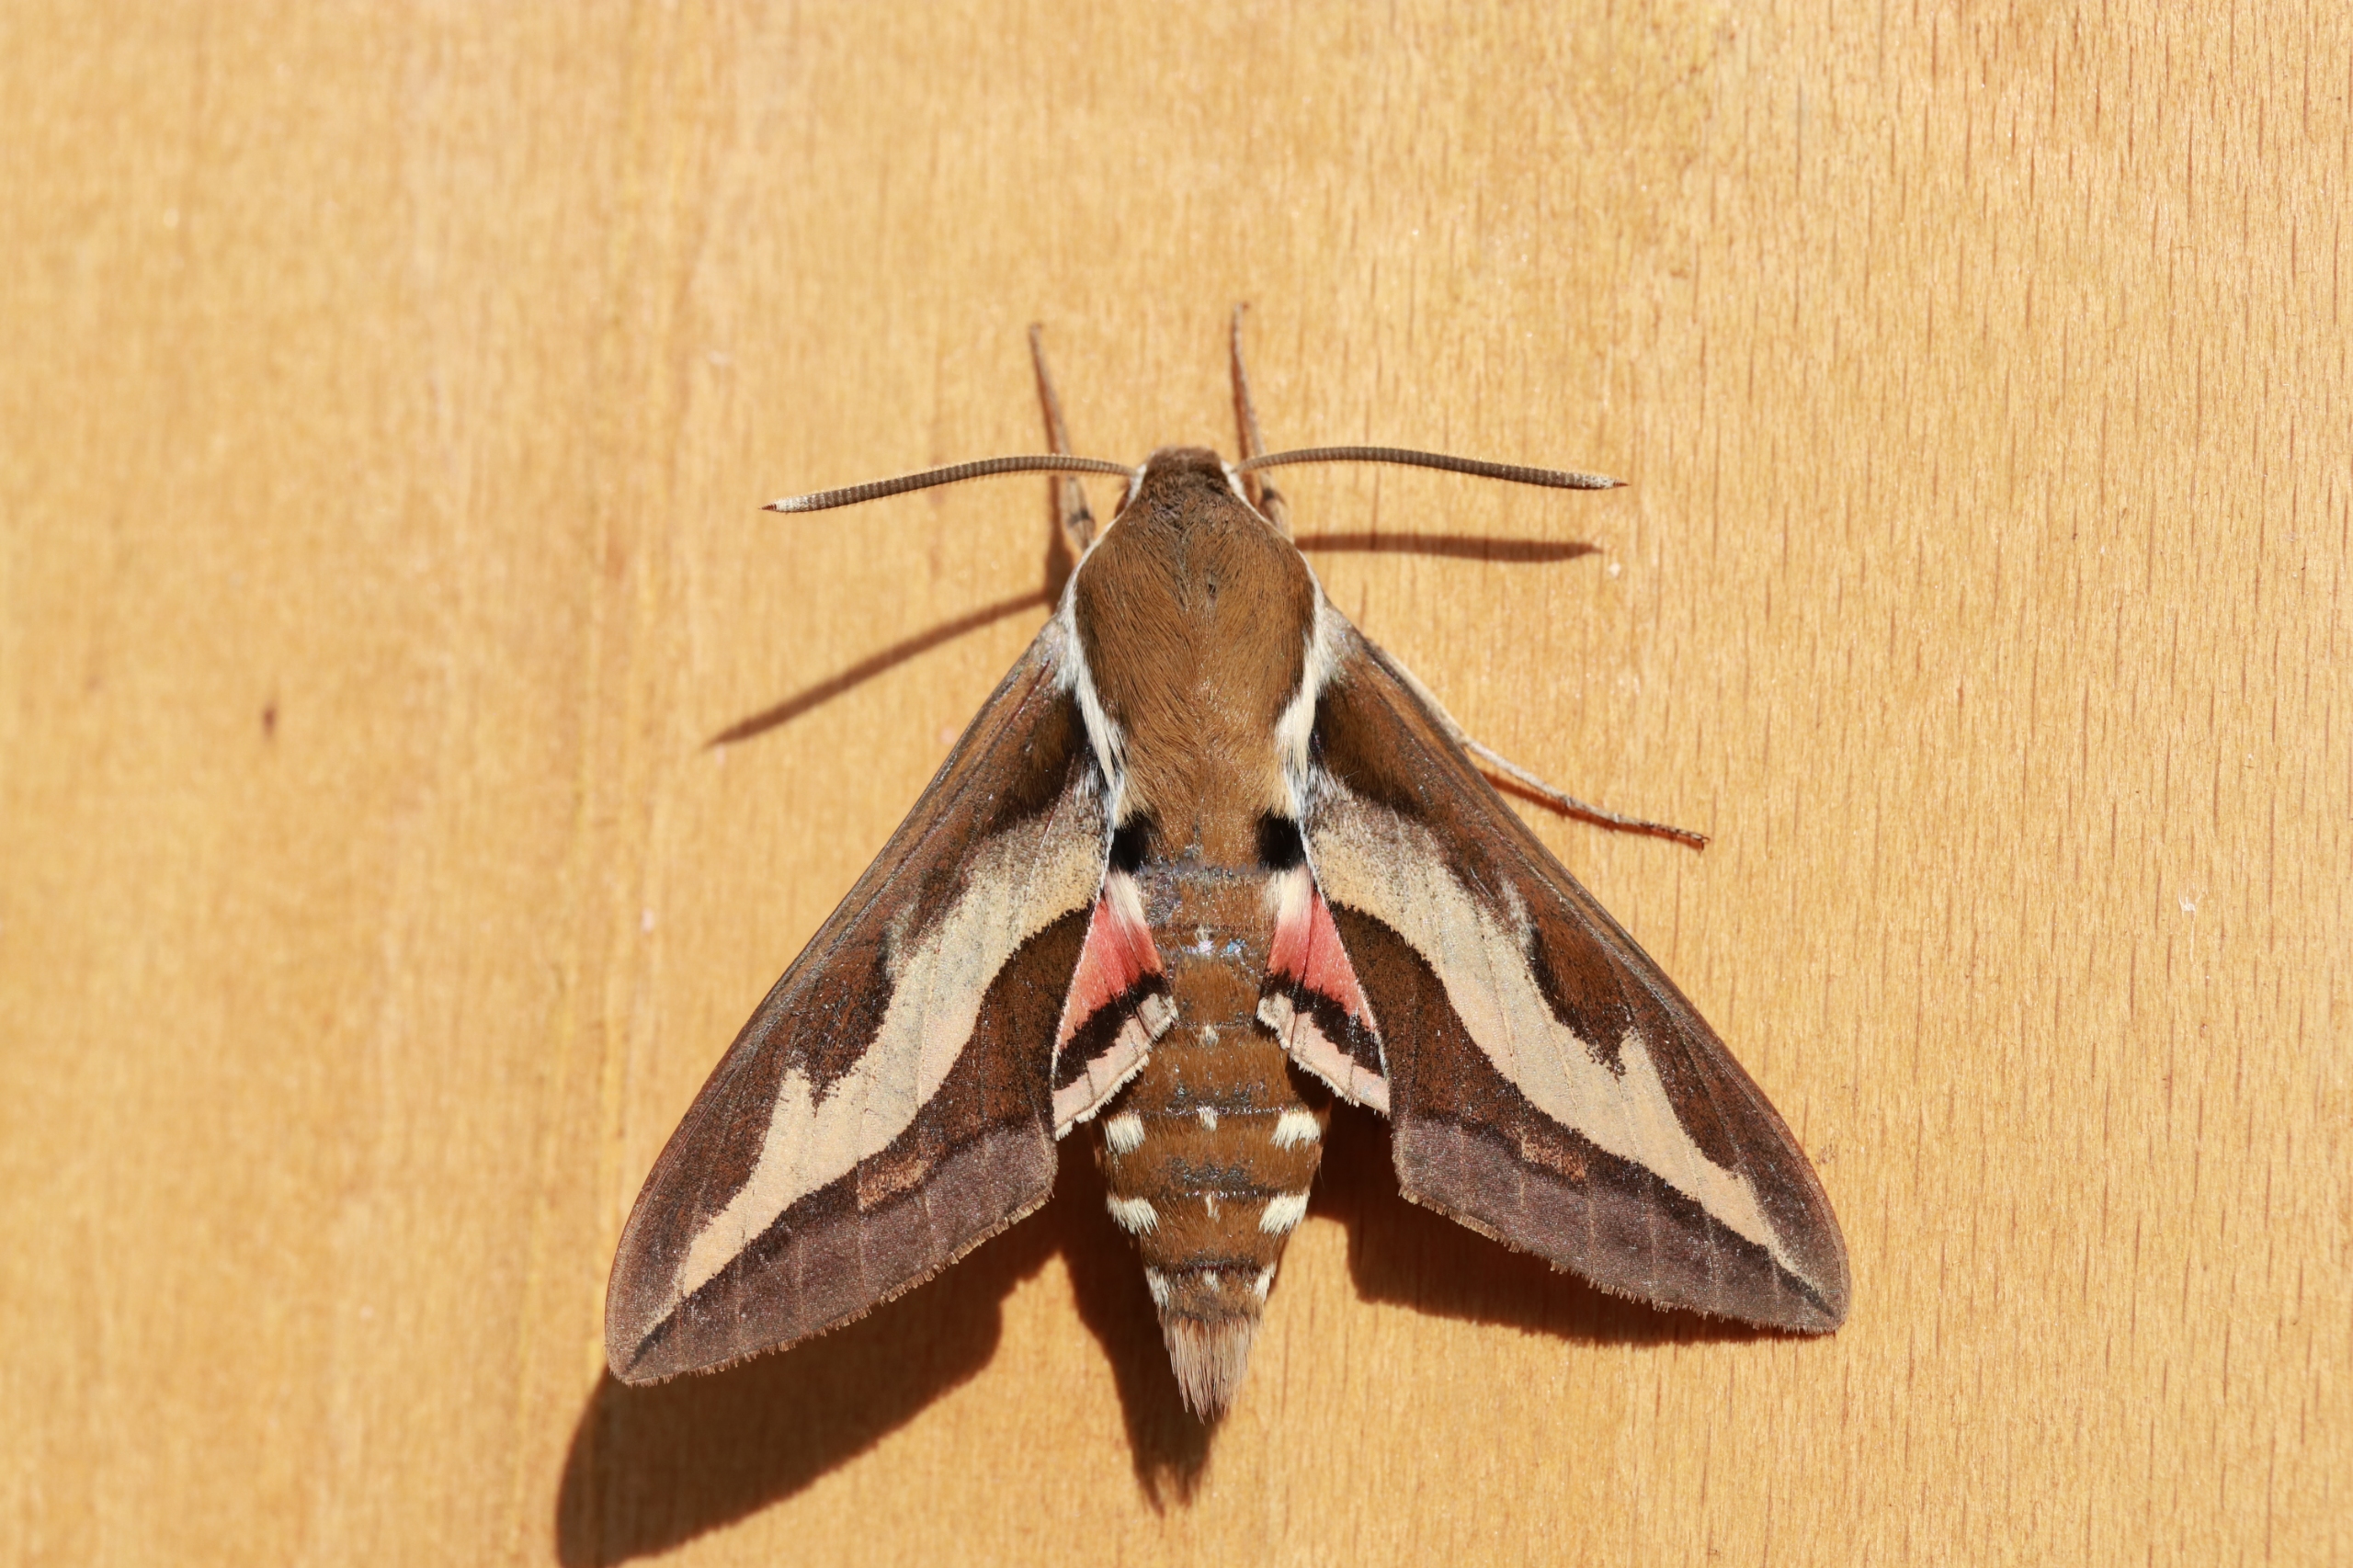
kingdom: Animalia
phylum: Arthropoda
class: Insecta
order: Lepidoptera
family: Sphingidae
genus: Hyles
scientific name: Hyles gallii
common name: Snerresværmer
